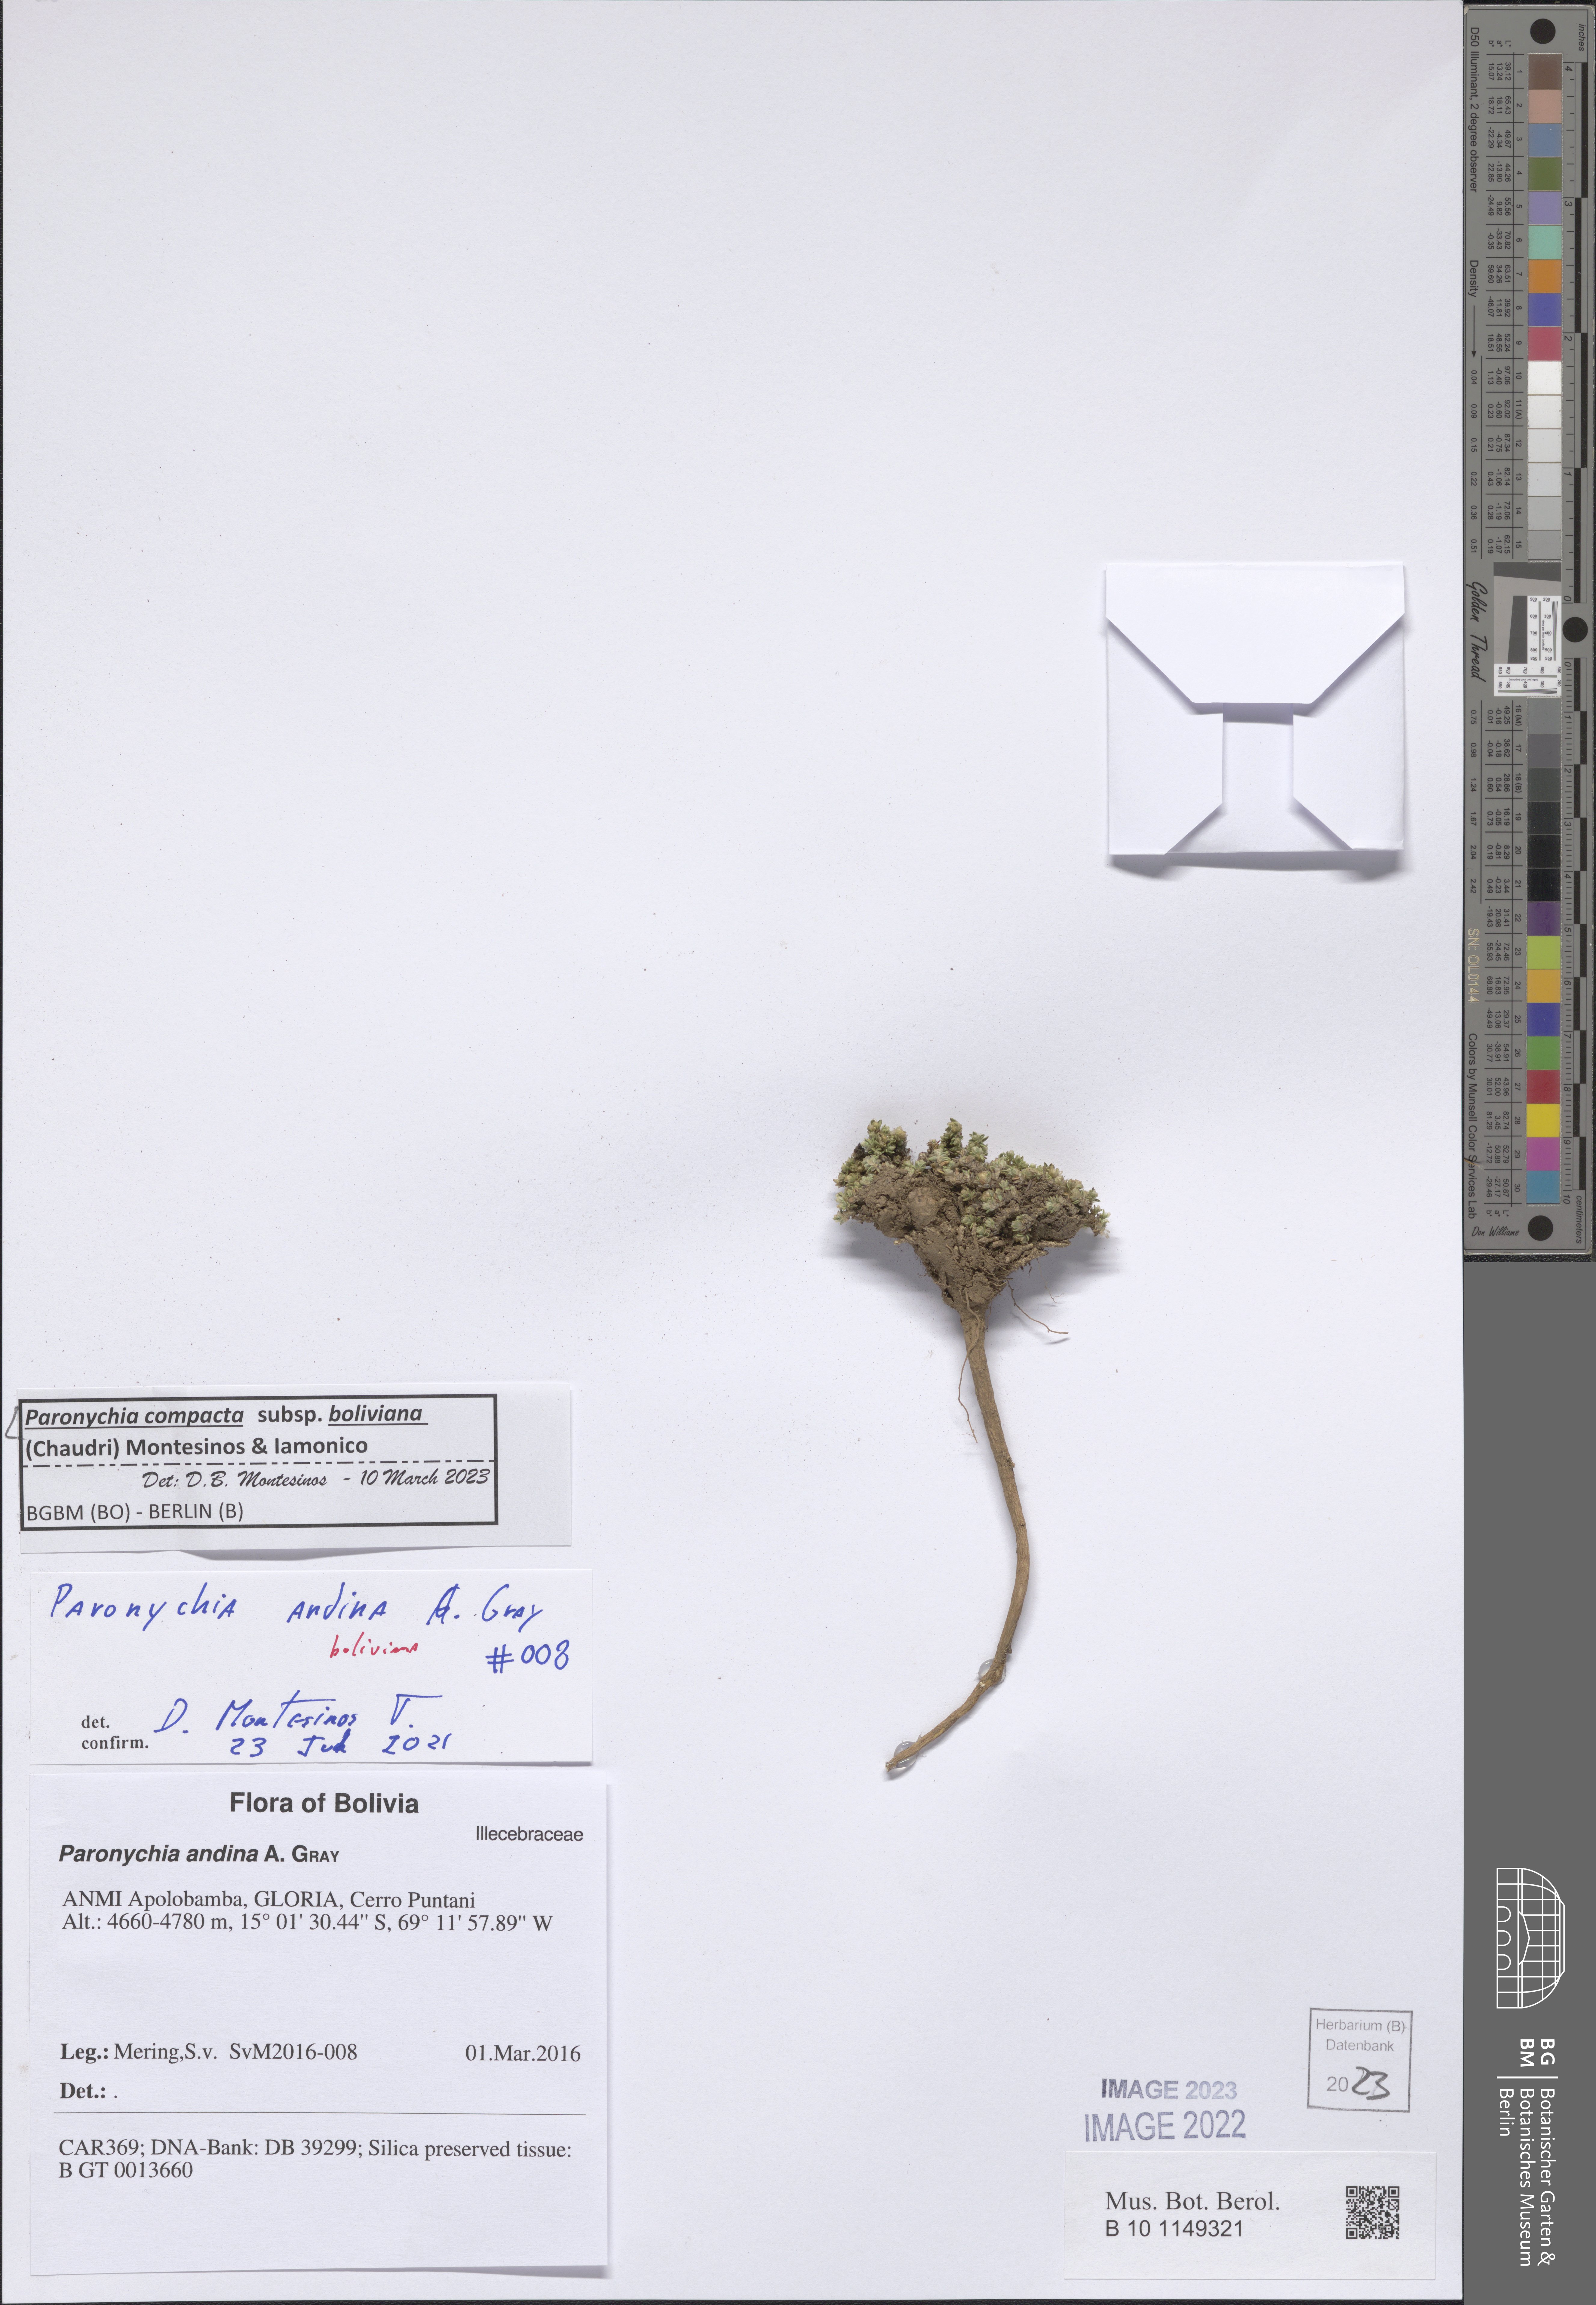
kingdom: Plantae
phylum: Tracheophyta
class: Magnoliopsida
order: Caryophyllales
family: Caryophyllaceae
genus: Paronychia
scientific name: Paronychia
